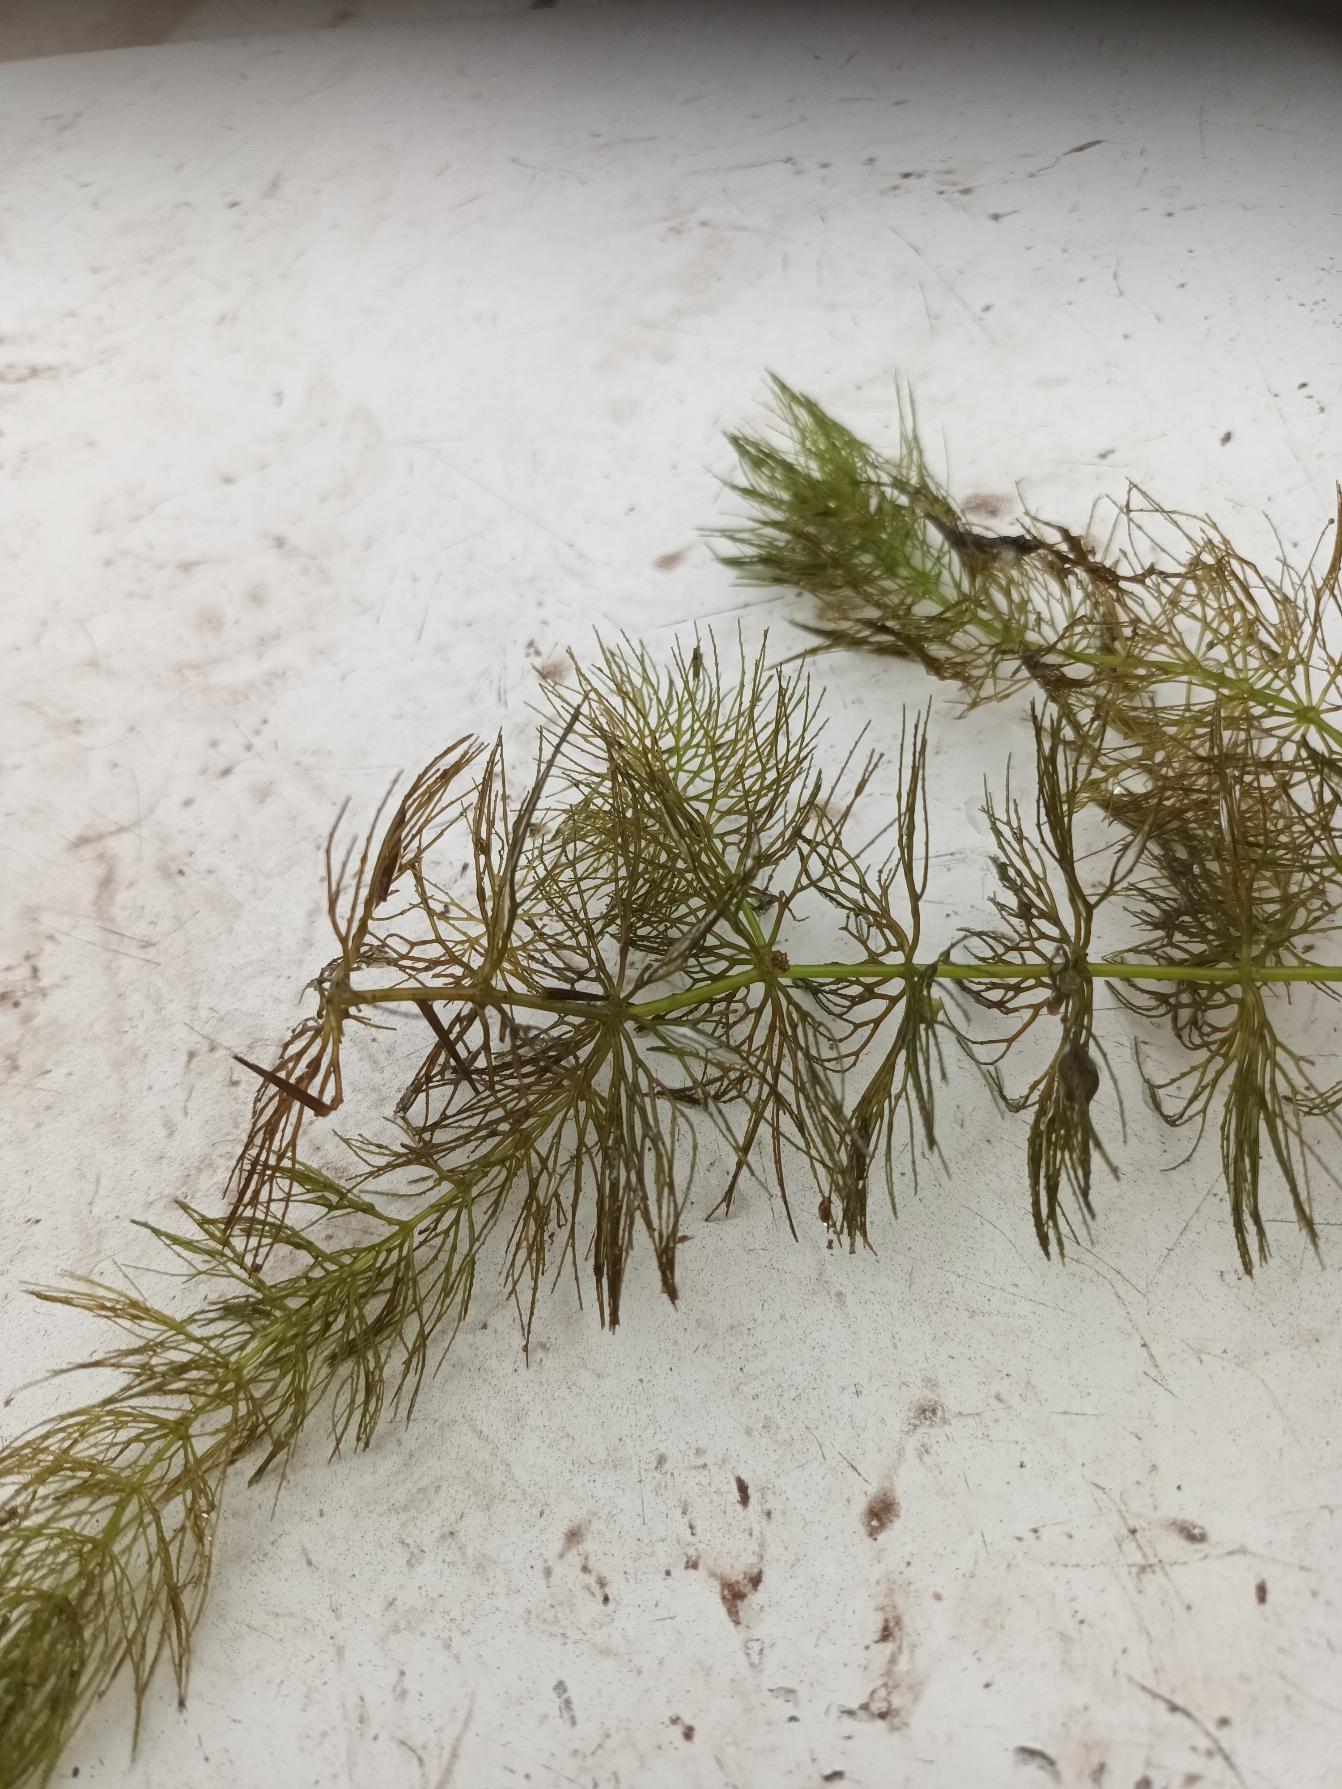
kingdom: Plantae
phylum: Tracheophyta
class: Magnoliopsida
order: Ceratophyllales
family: Ceratophyllaceae
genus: Ceratophyllum
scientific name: Ceratophyllum submersum
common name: Tornløs hornblad
